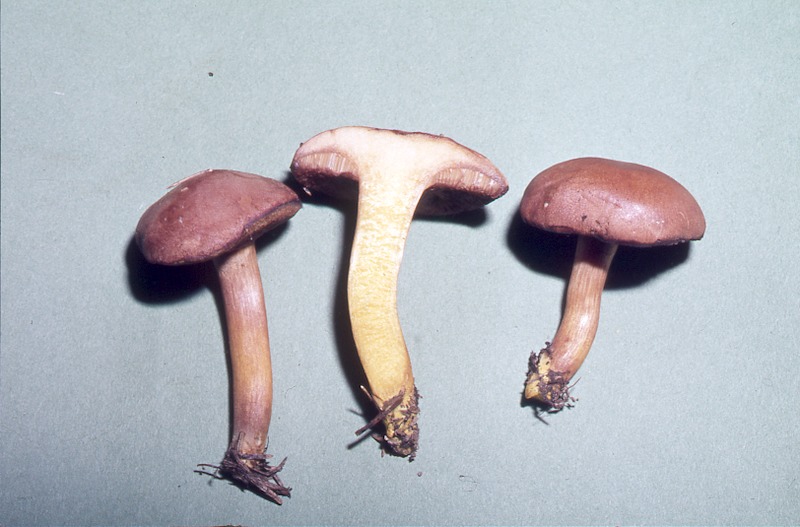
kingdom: Fungi
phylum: Basidiomycota
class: Agaricomycetes
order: Boletales
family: Boletaceae
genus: Chalciporus
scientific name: Chalciporus piperatus
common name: Peppery bolete
